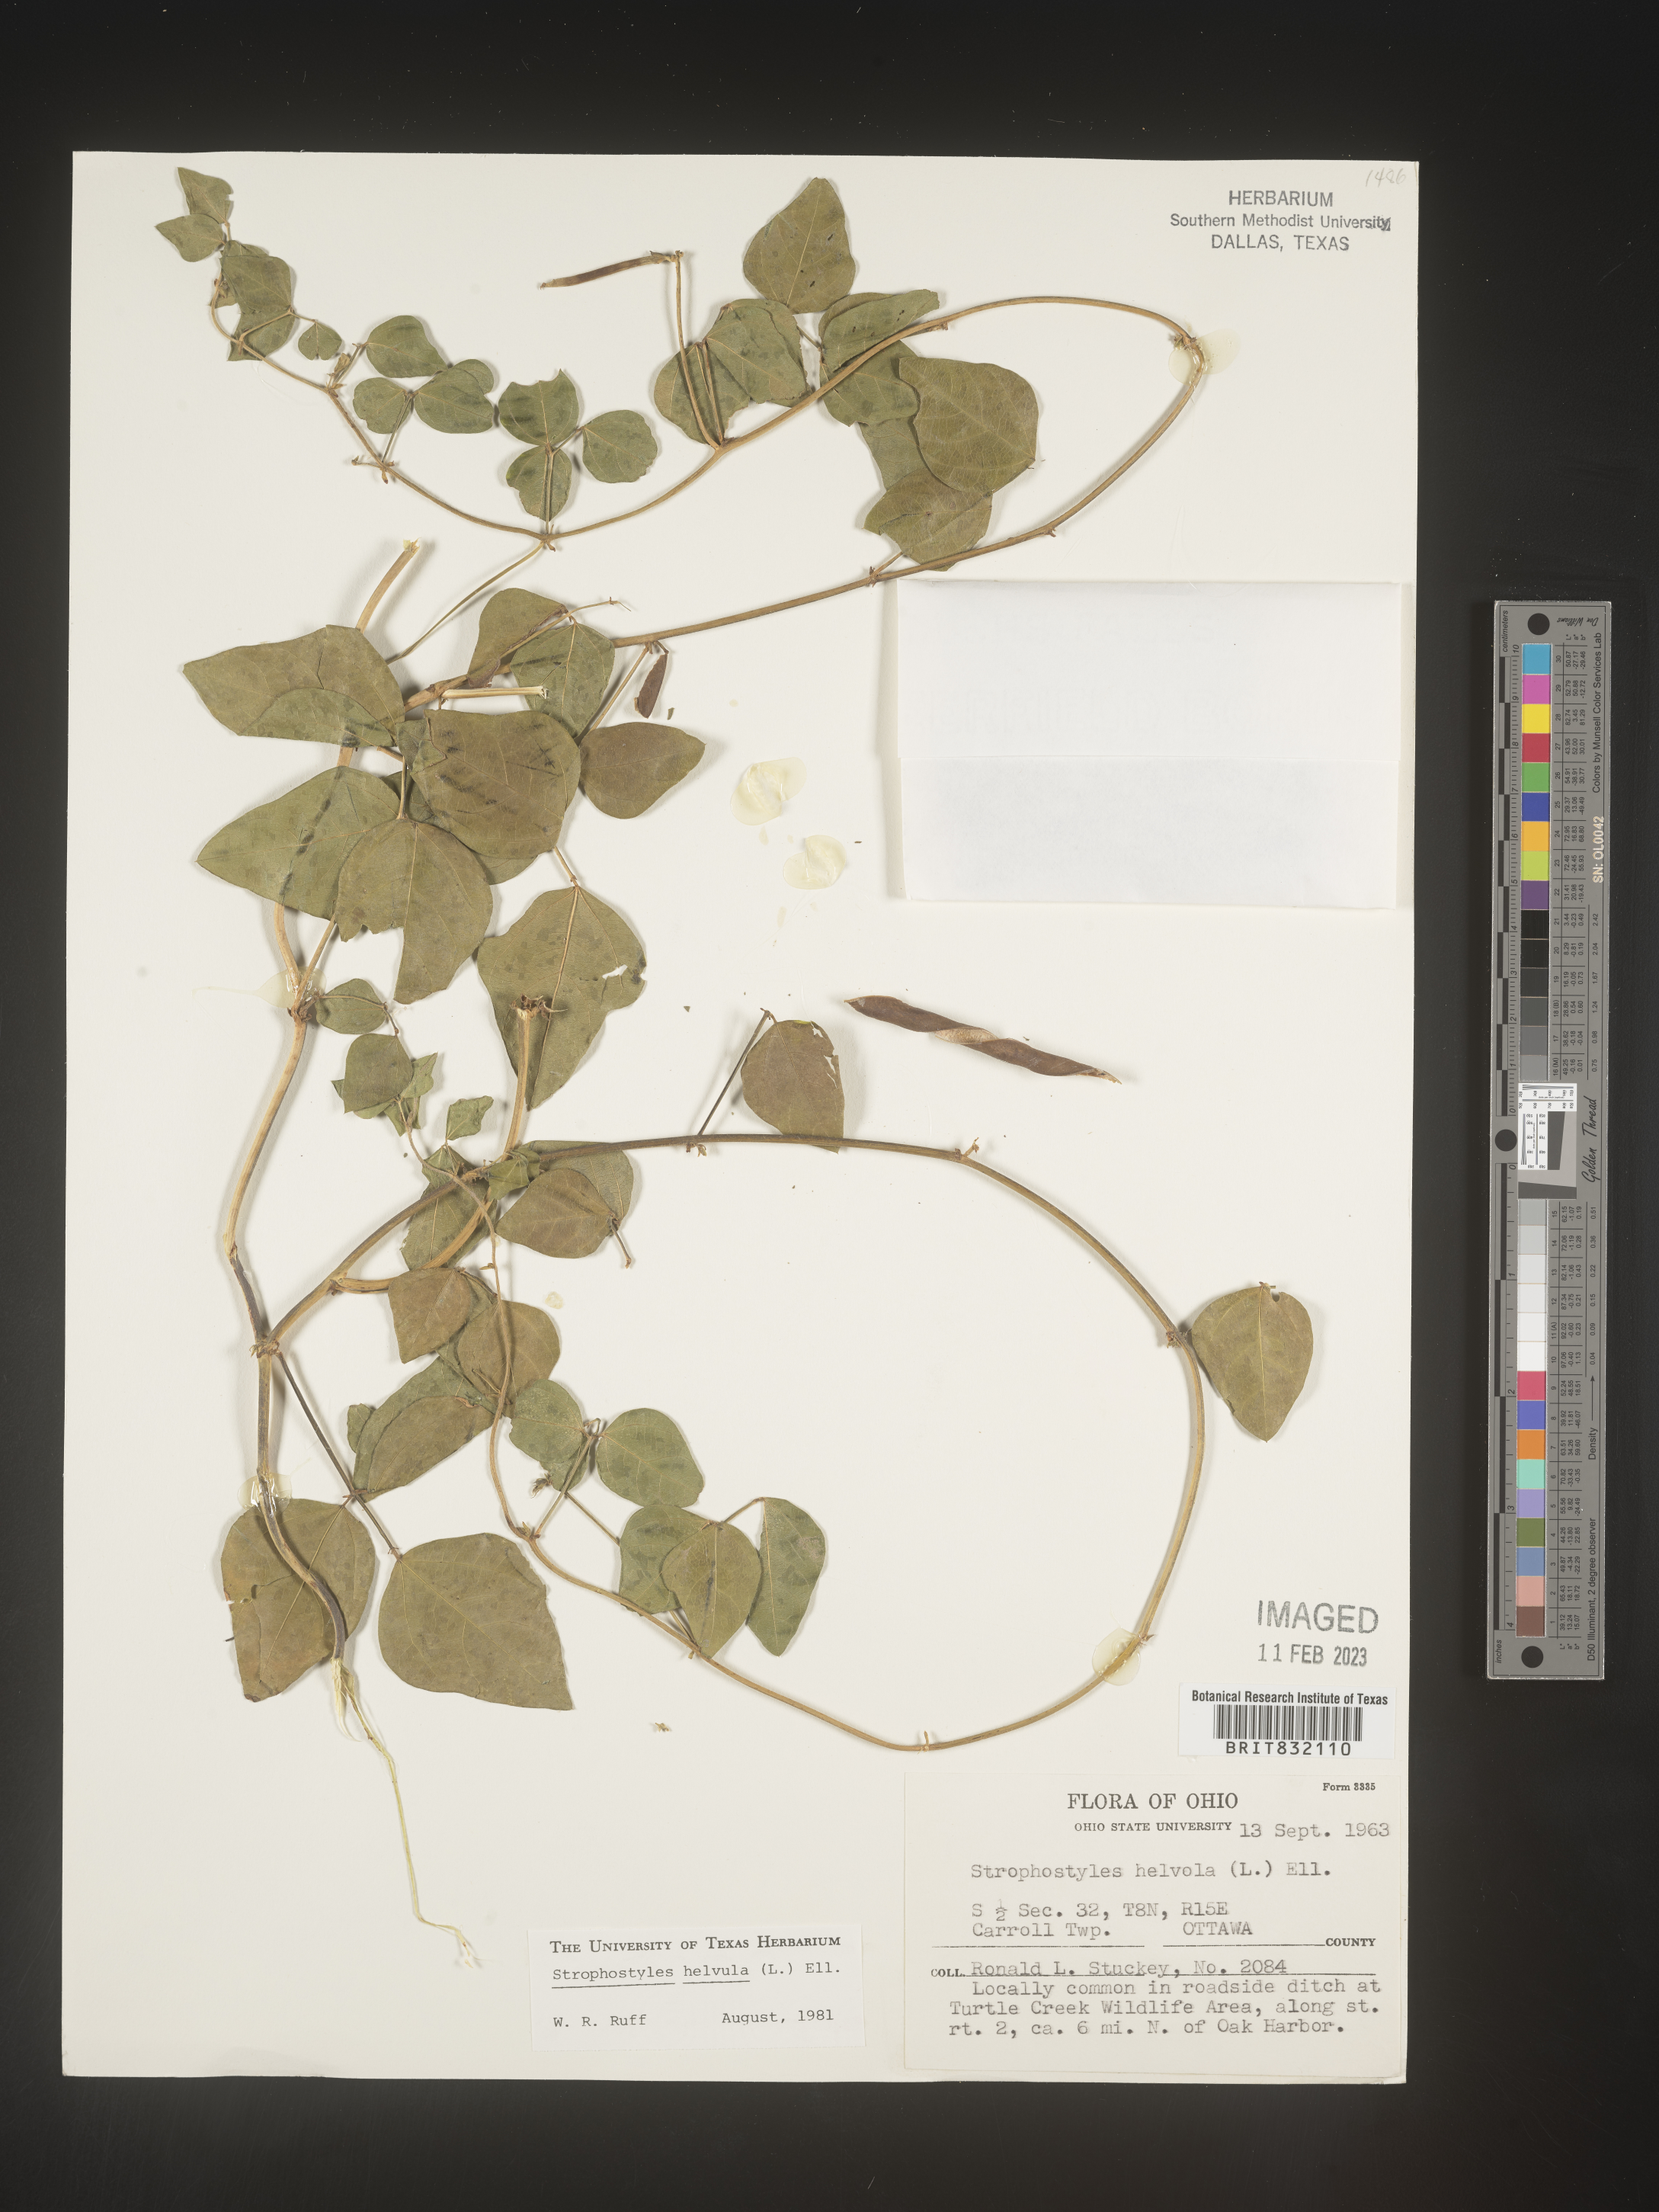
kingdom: Plantae
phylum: Tracheophyta
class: Magnoliopsida
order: Fabales
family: Fabaceae
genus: Strophostyles
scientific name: Strophostyles helvola
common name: Trailing wild bean
